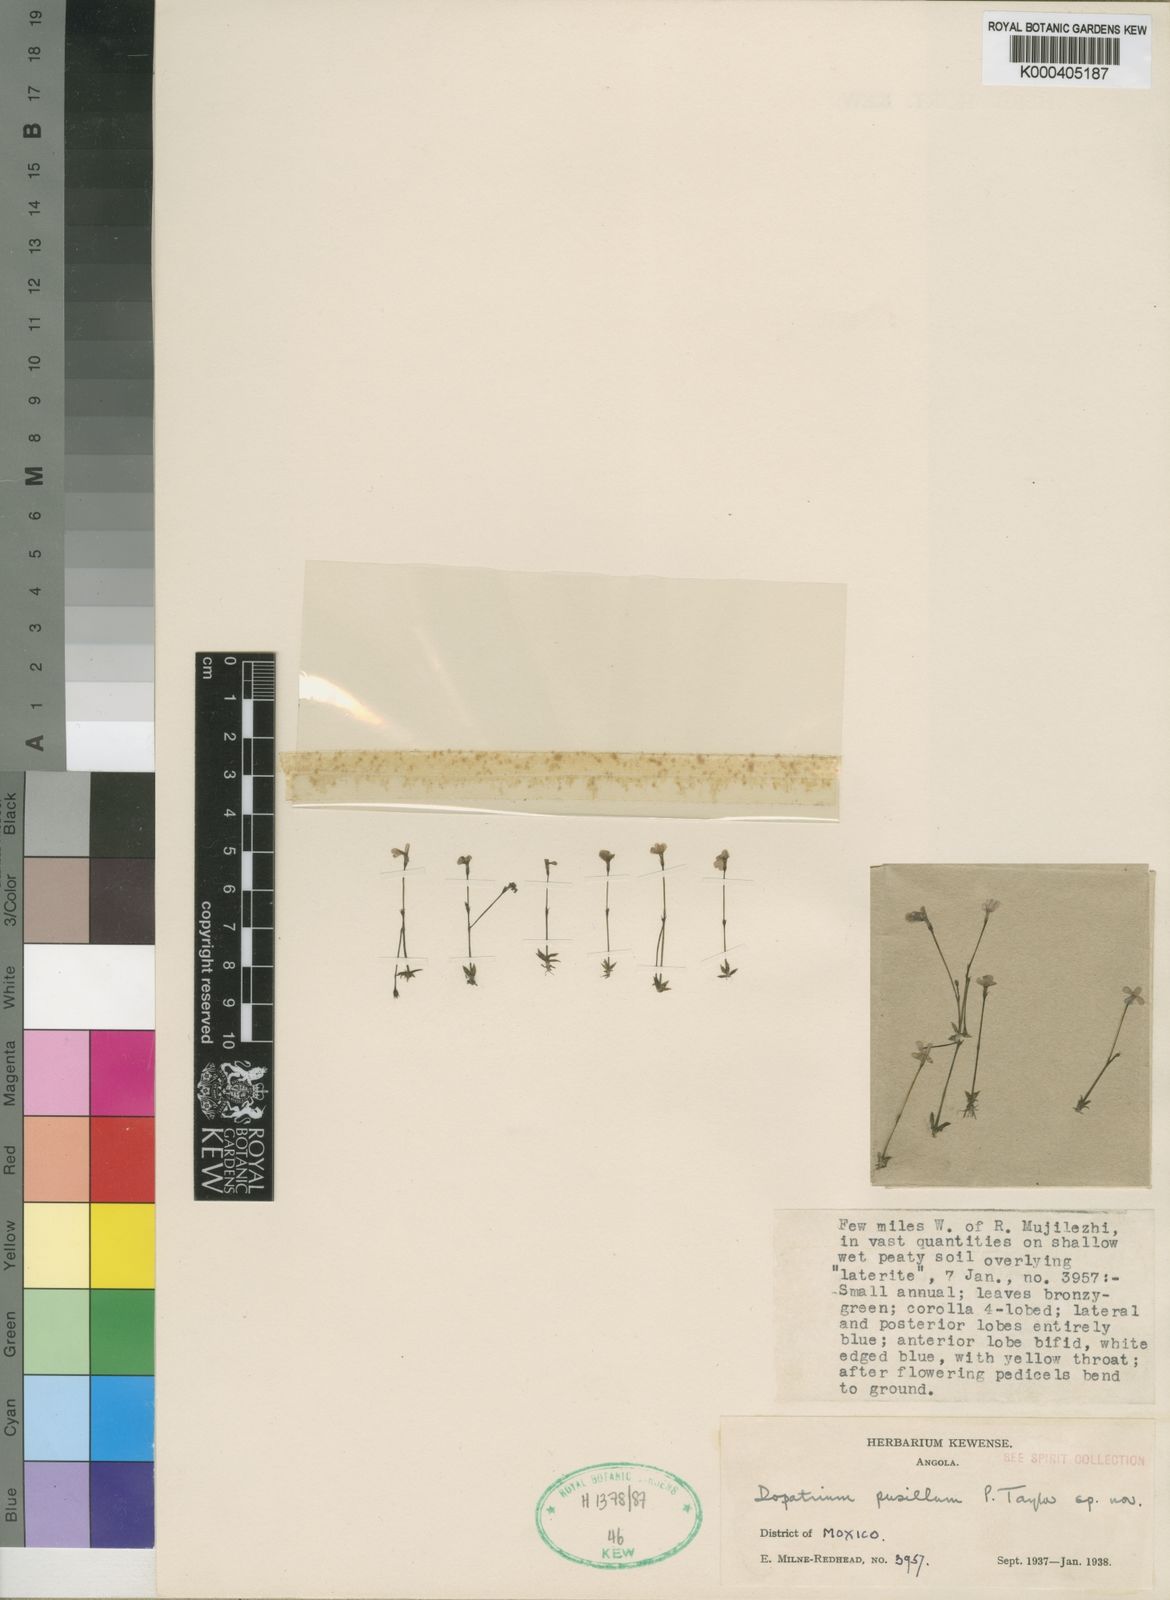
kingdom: Plantae
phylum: Tracheophyta
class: Magnoliopsida
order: Lamiales
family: Plantaginaceae
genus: Dopatrium
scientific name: Dopatrium pusillum
